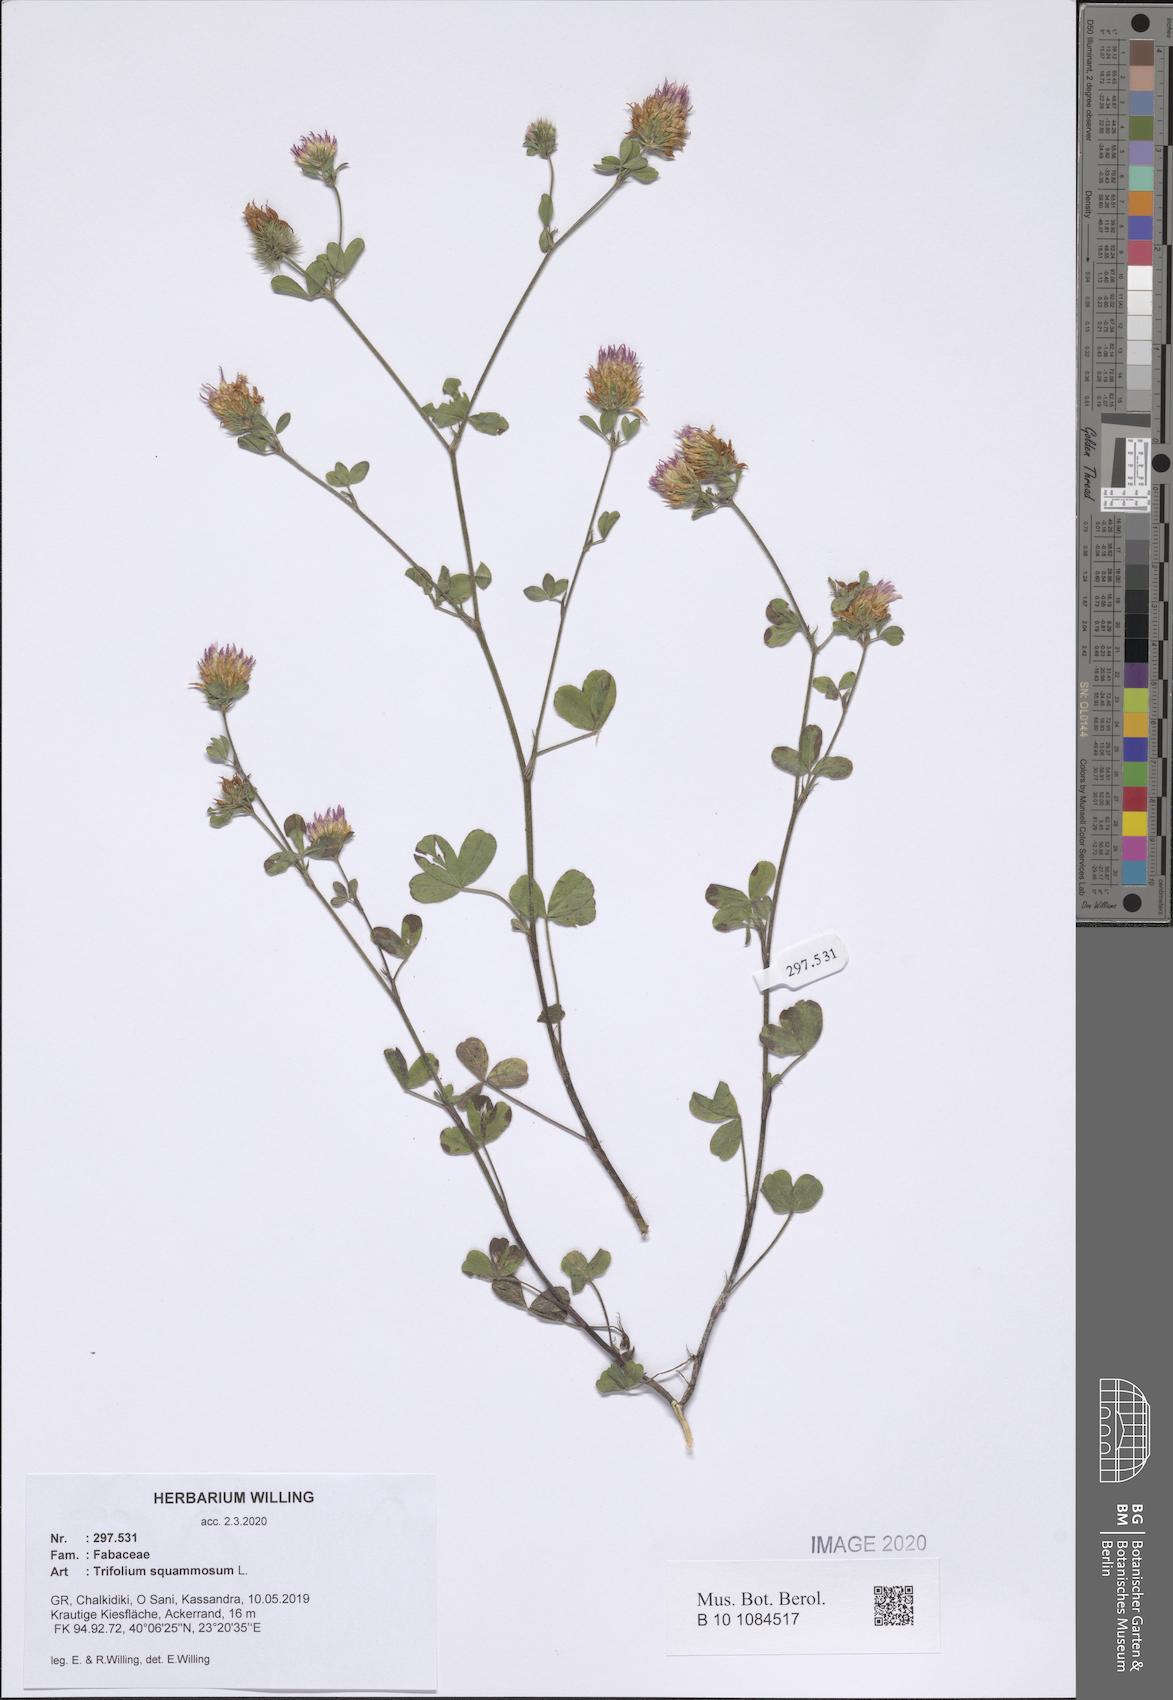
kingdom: Plantae
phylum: Tracheophyta
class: Magnoliopsida
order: Fabales
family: Fabaceae
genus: Trifolium
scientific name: Trifolium squamosum
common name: Sea clover
